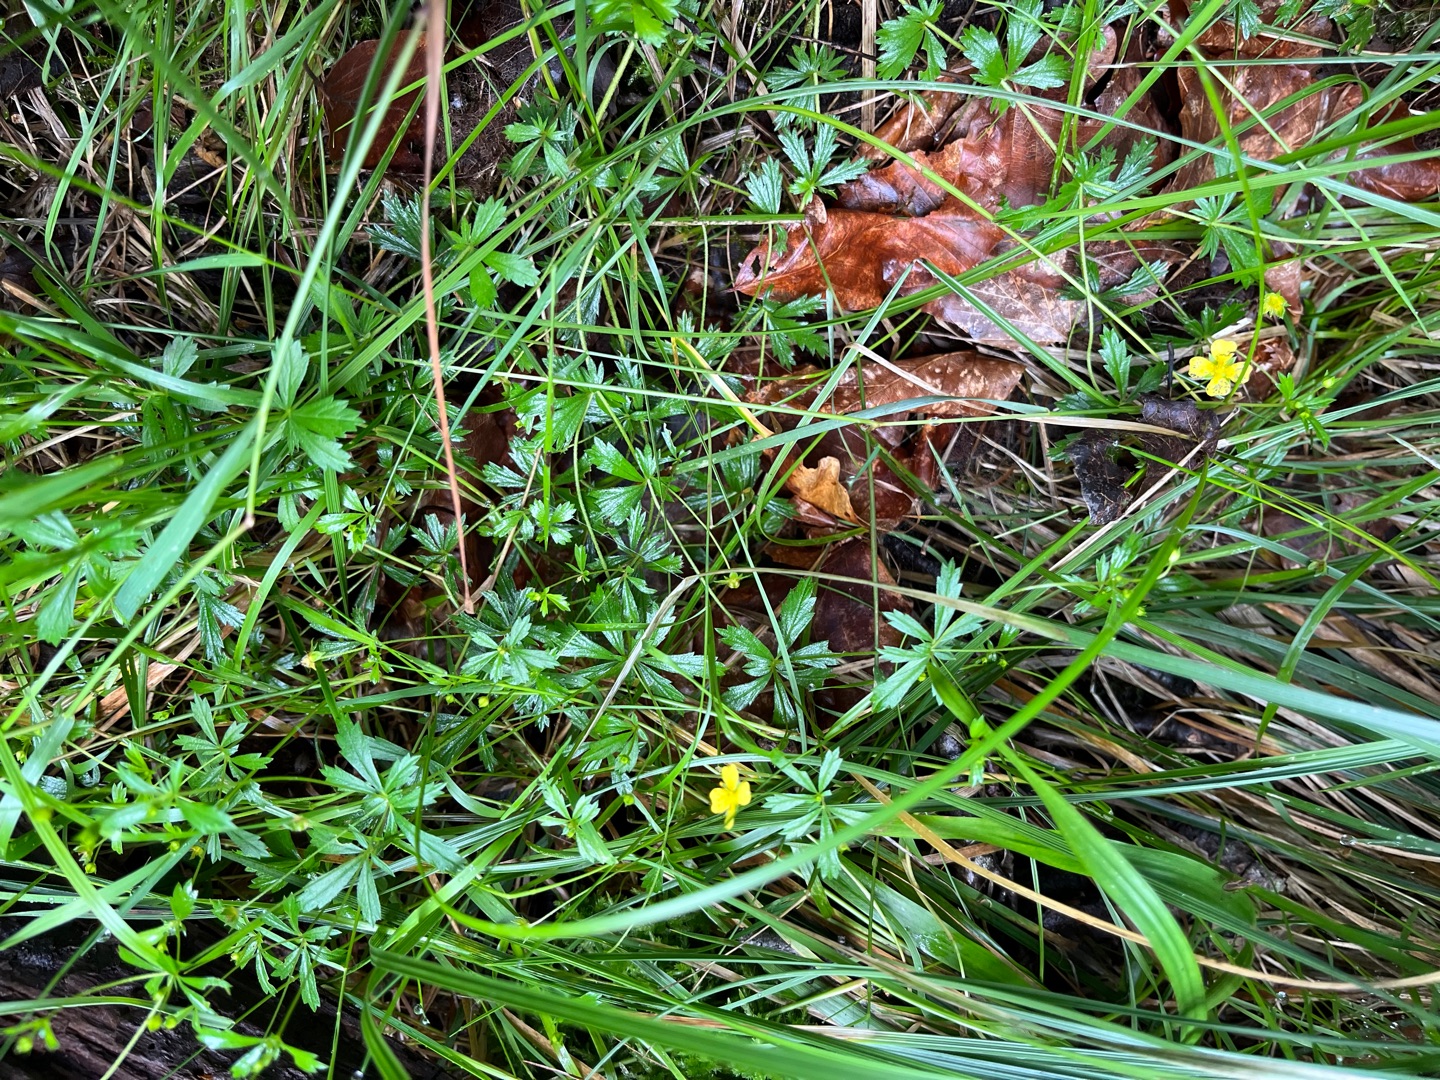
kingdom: Plantae
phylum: Tracheophyta
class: Magnoliopsida
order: Rosales
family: Rosaceae
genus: Potentilla
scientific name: Potentilla erecta
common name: Tormentil
